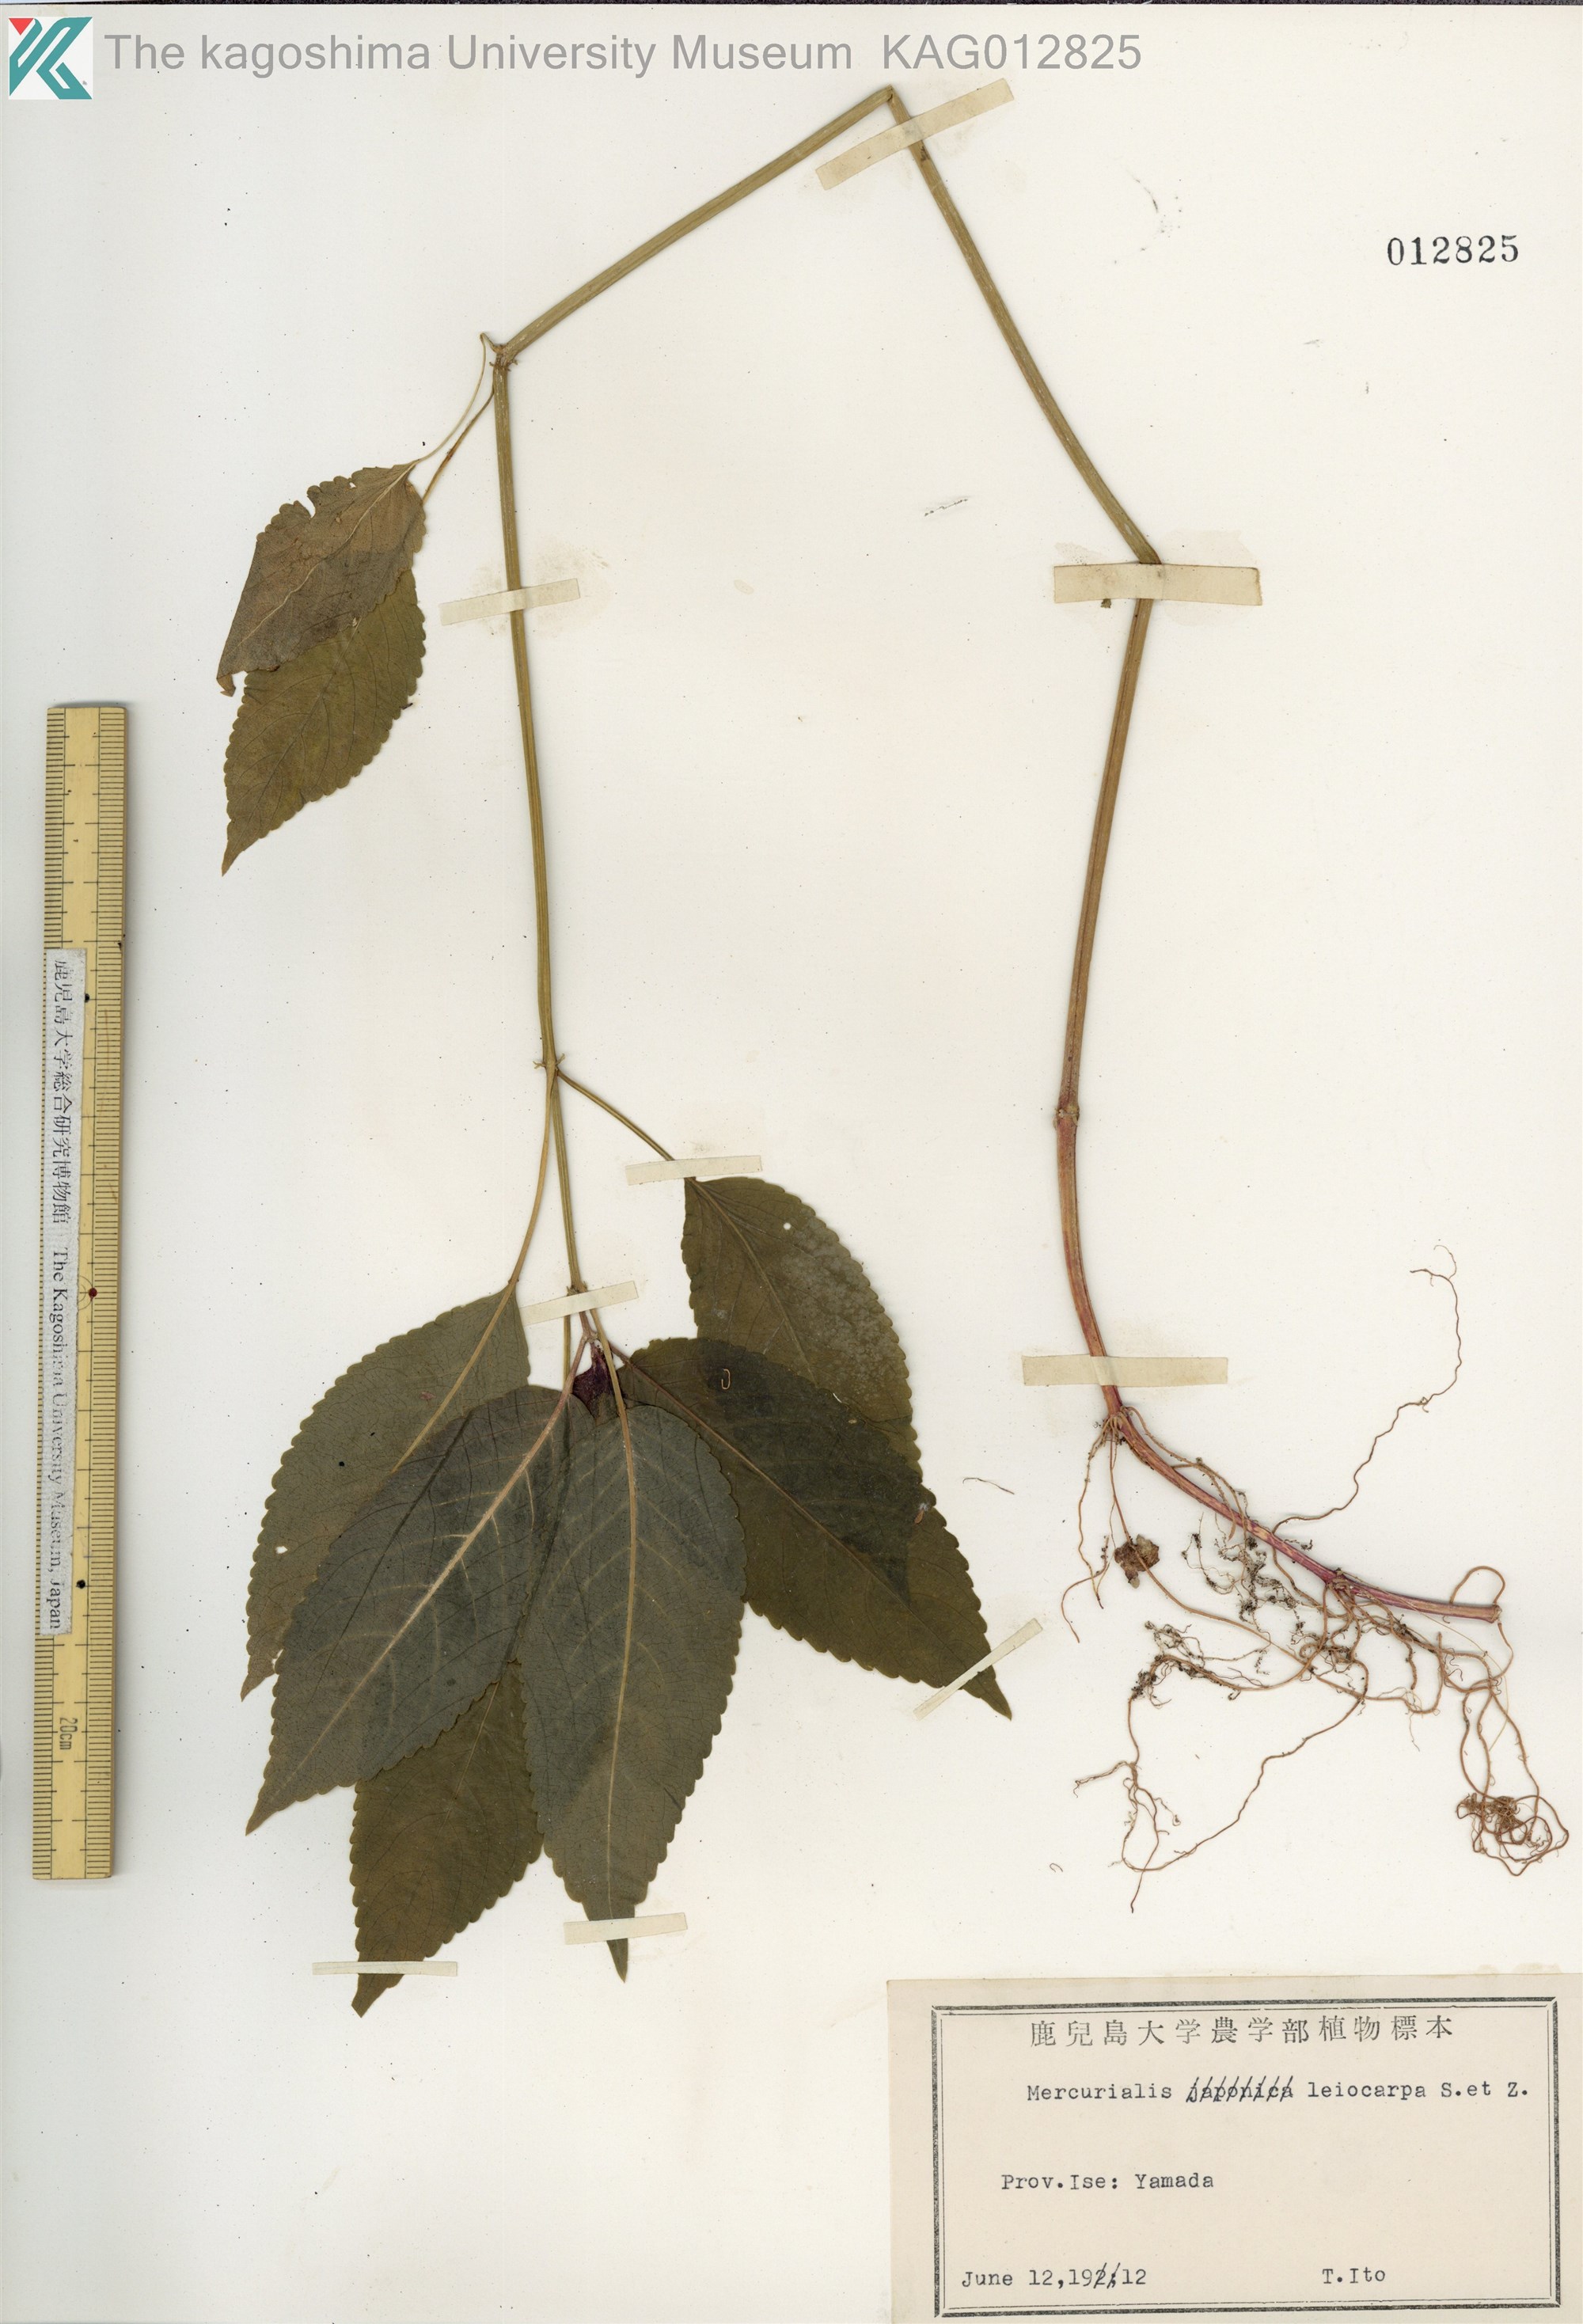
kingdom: Plantae
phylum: Tracheophyta
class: Magnoliopsida
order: Malpighiales
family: Euphorbiaceae
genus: Mercurialis
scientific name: Mercurialis leiocarpa
